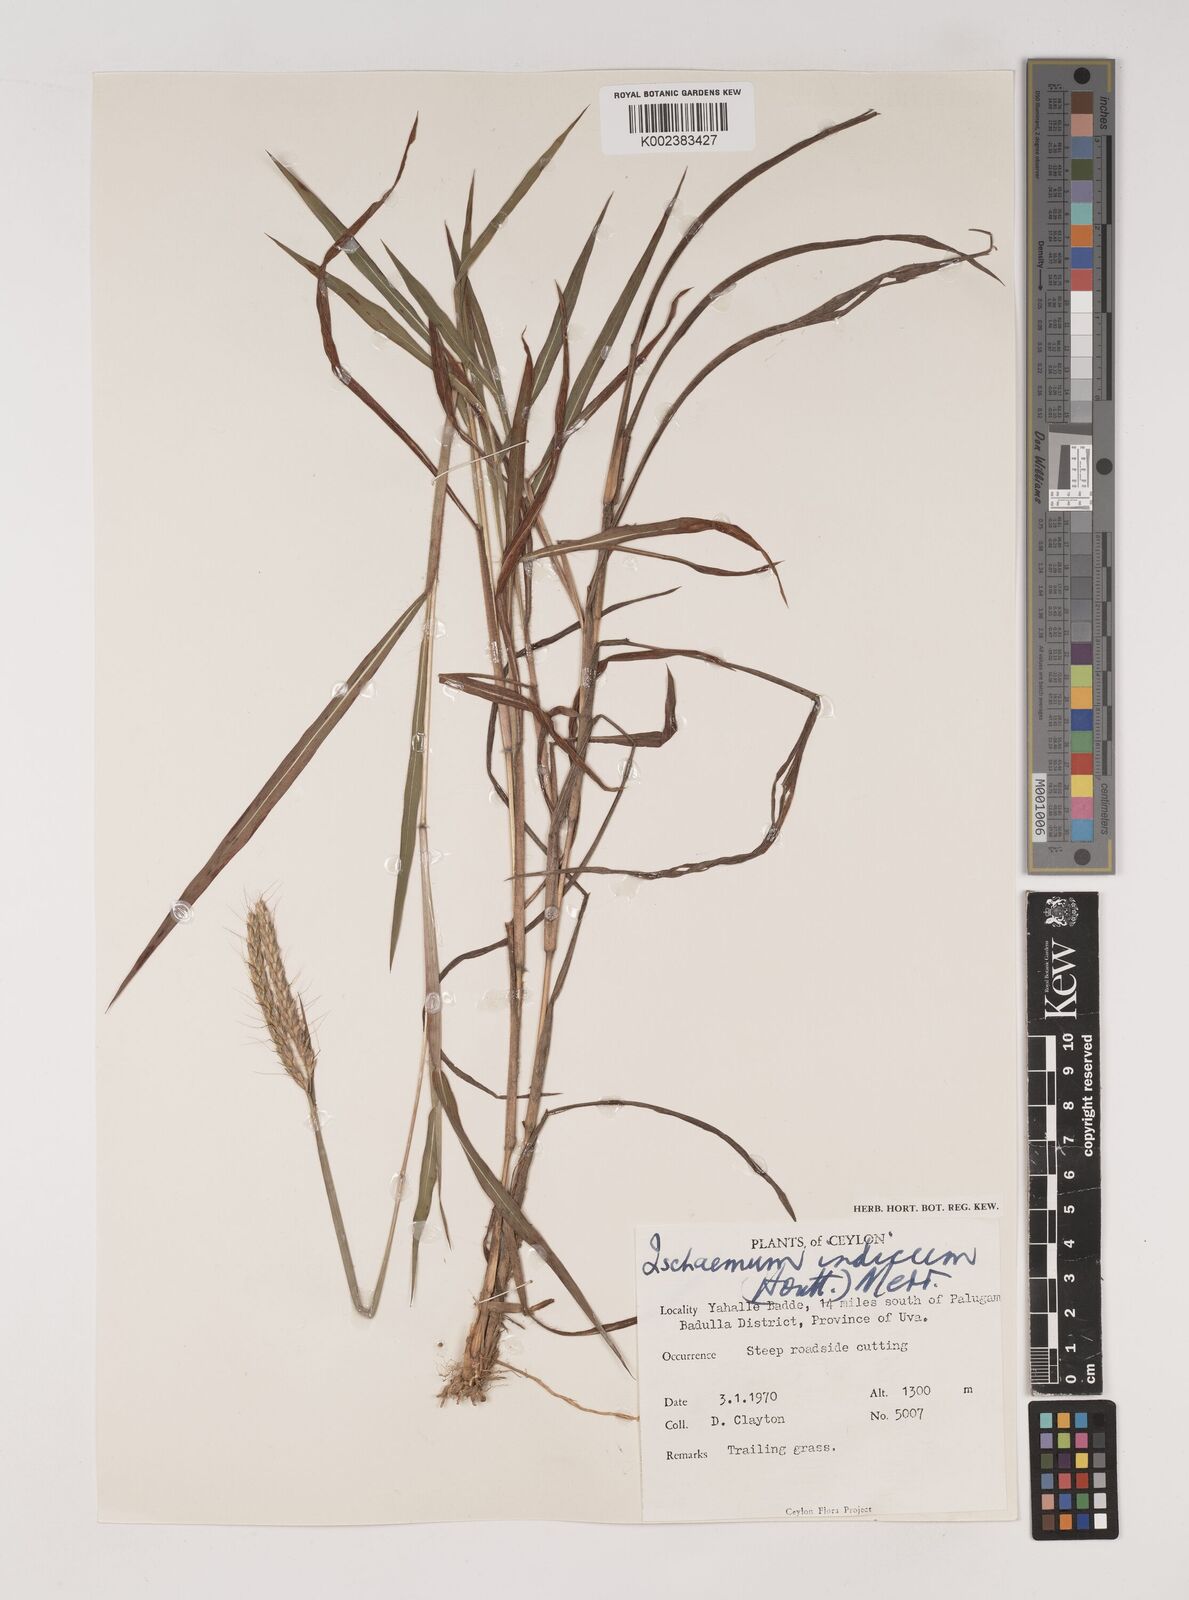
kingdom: Plantae
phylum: Tracheophyta
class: Liliopsida
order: Poales
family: Poaceae
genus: Polytrias
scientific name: Polytrias indica
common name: Indian murainagrass
